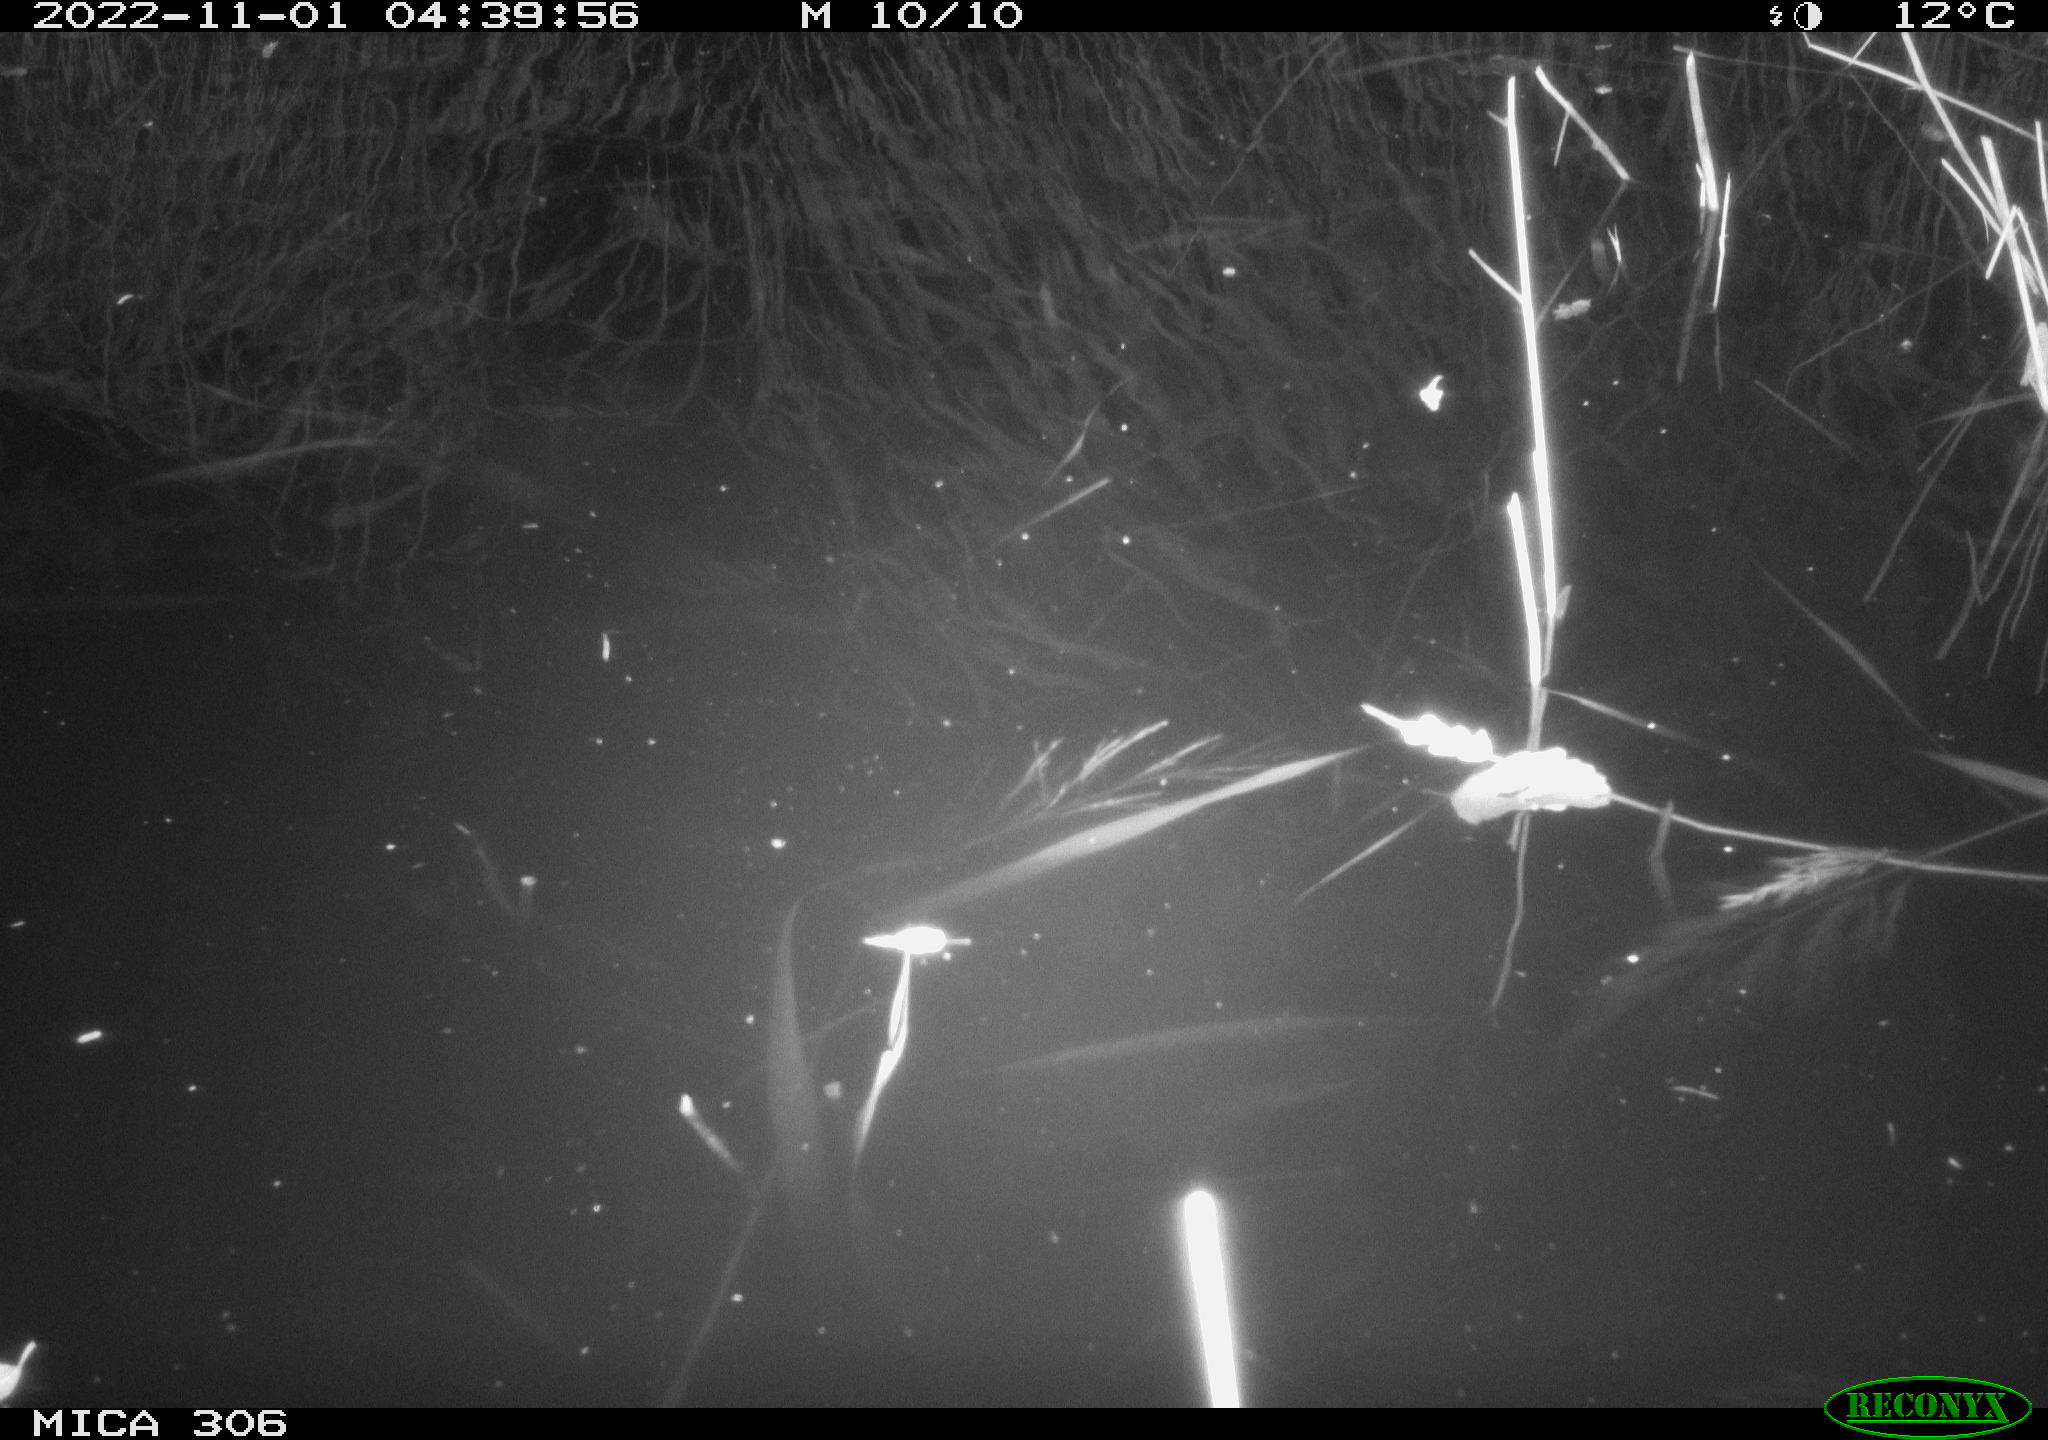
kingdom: Animalia
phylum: Chordata
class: Mammalia
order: Rodentia
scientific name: Rodentia
